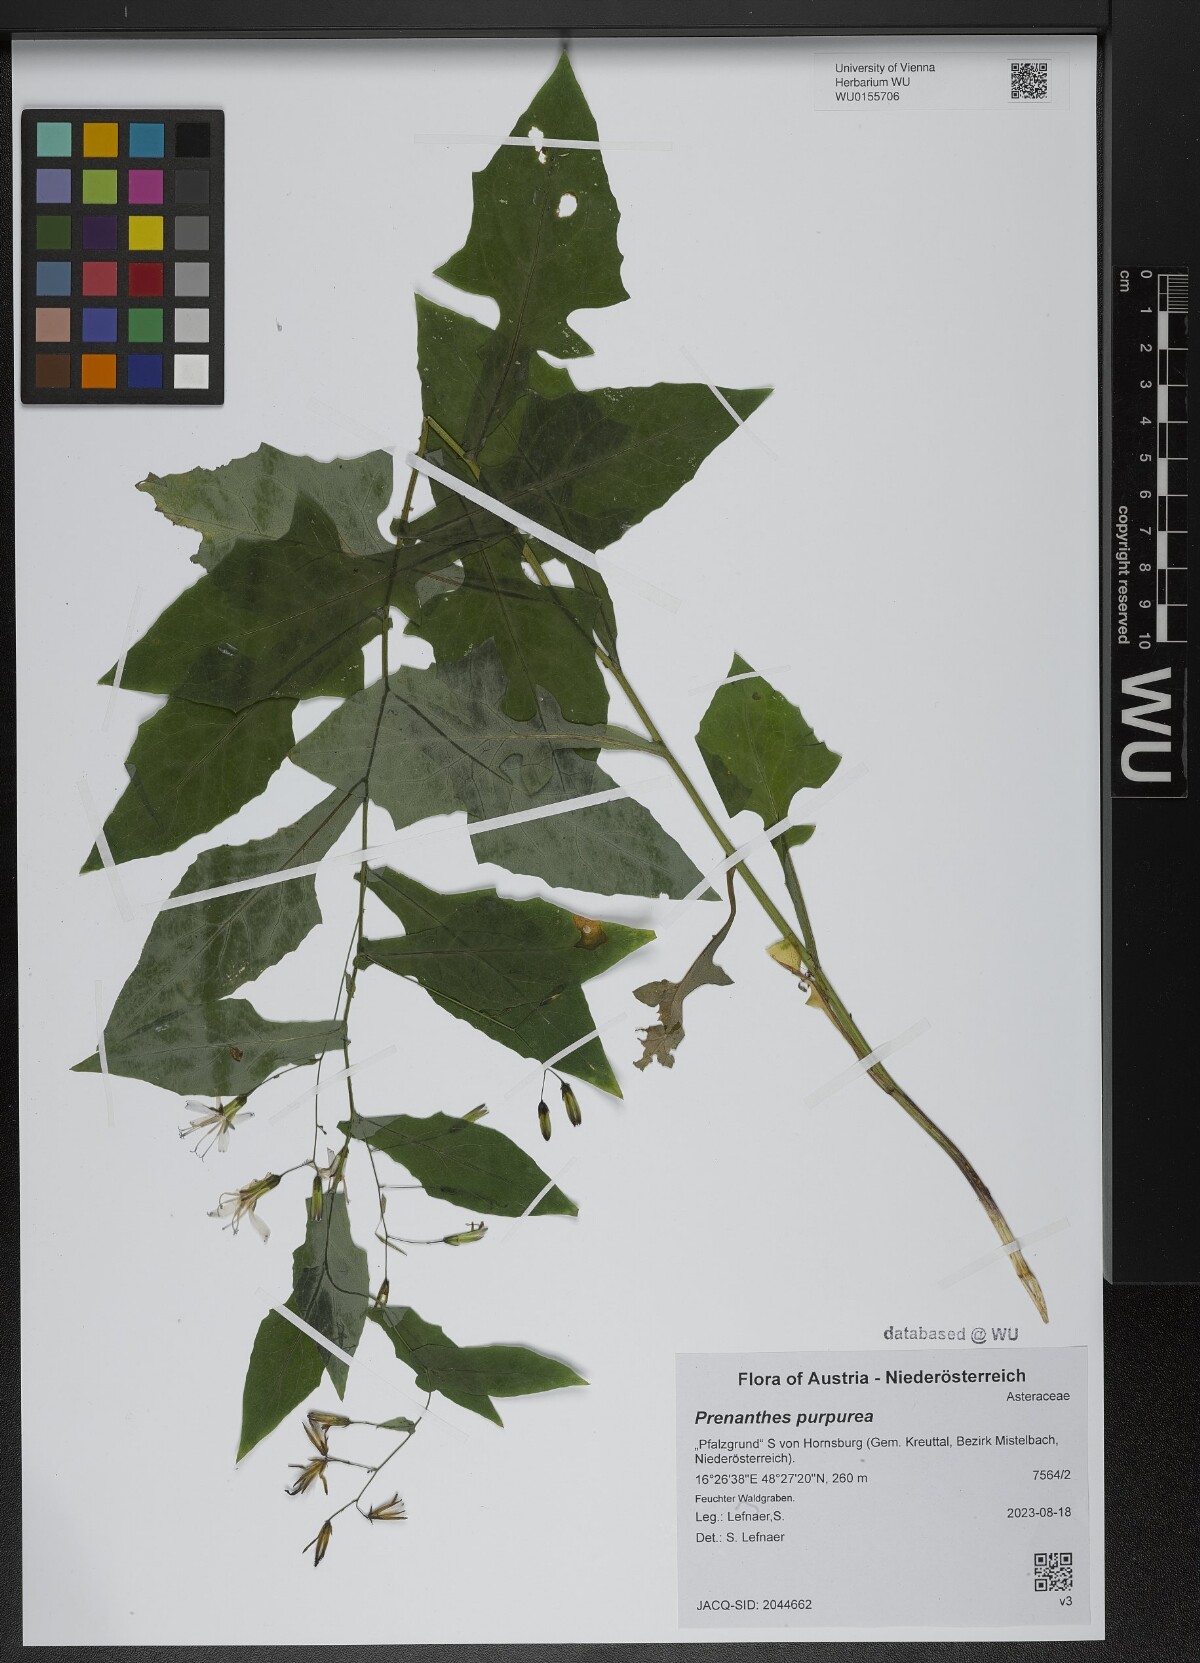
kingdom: Plantae
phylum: Tracheophyta
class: Magnoliopsida
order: Asterales
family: Asteraceae
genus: Prenanthes
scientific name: Prenanthes purpurea
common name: Purple lettuce
